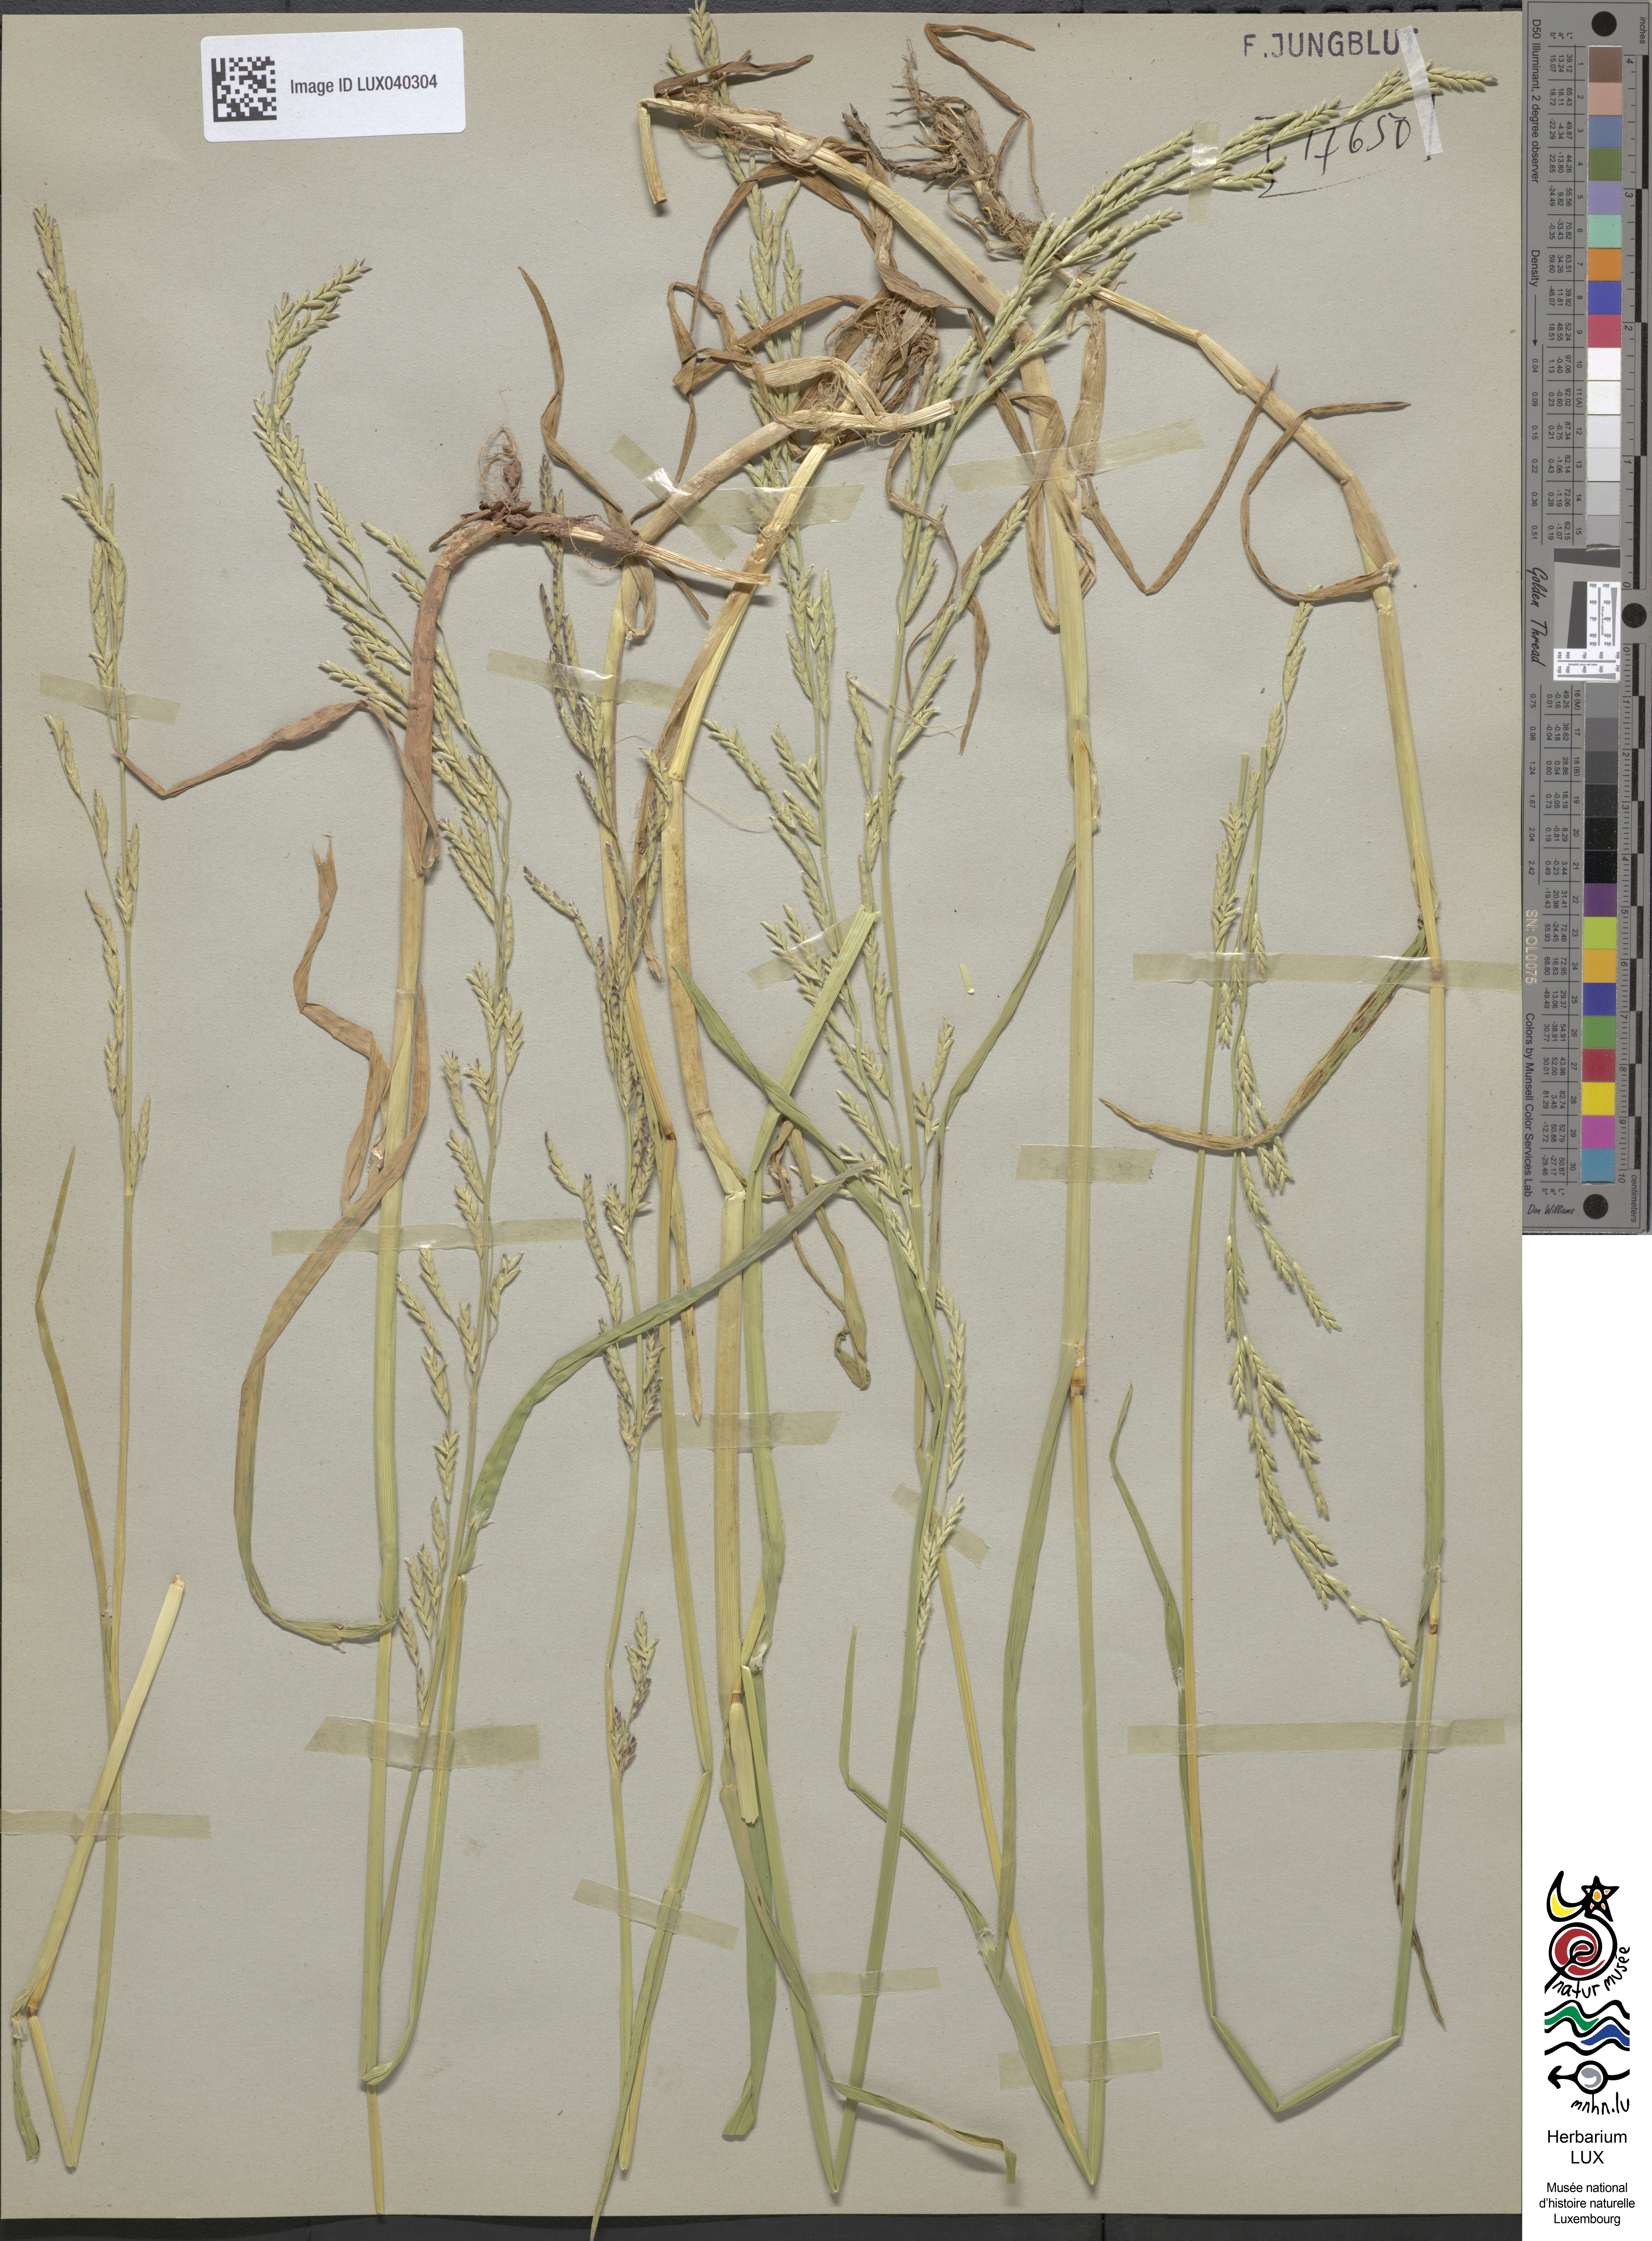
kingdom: Plantae
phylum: Tracheophyta
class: Liliopsida
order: Poales
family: Poaceae
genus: Glyceria
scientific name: Glyceria notata
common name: Plicate sweet-grass
